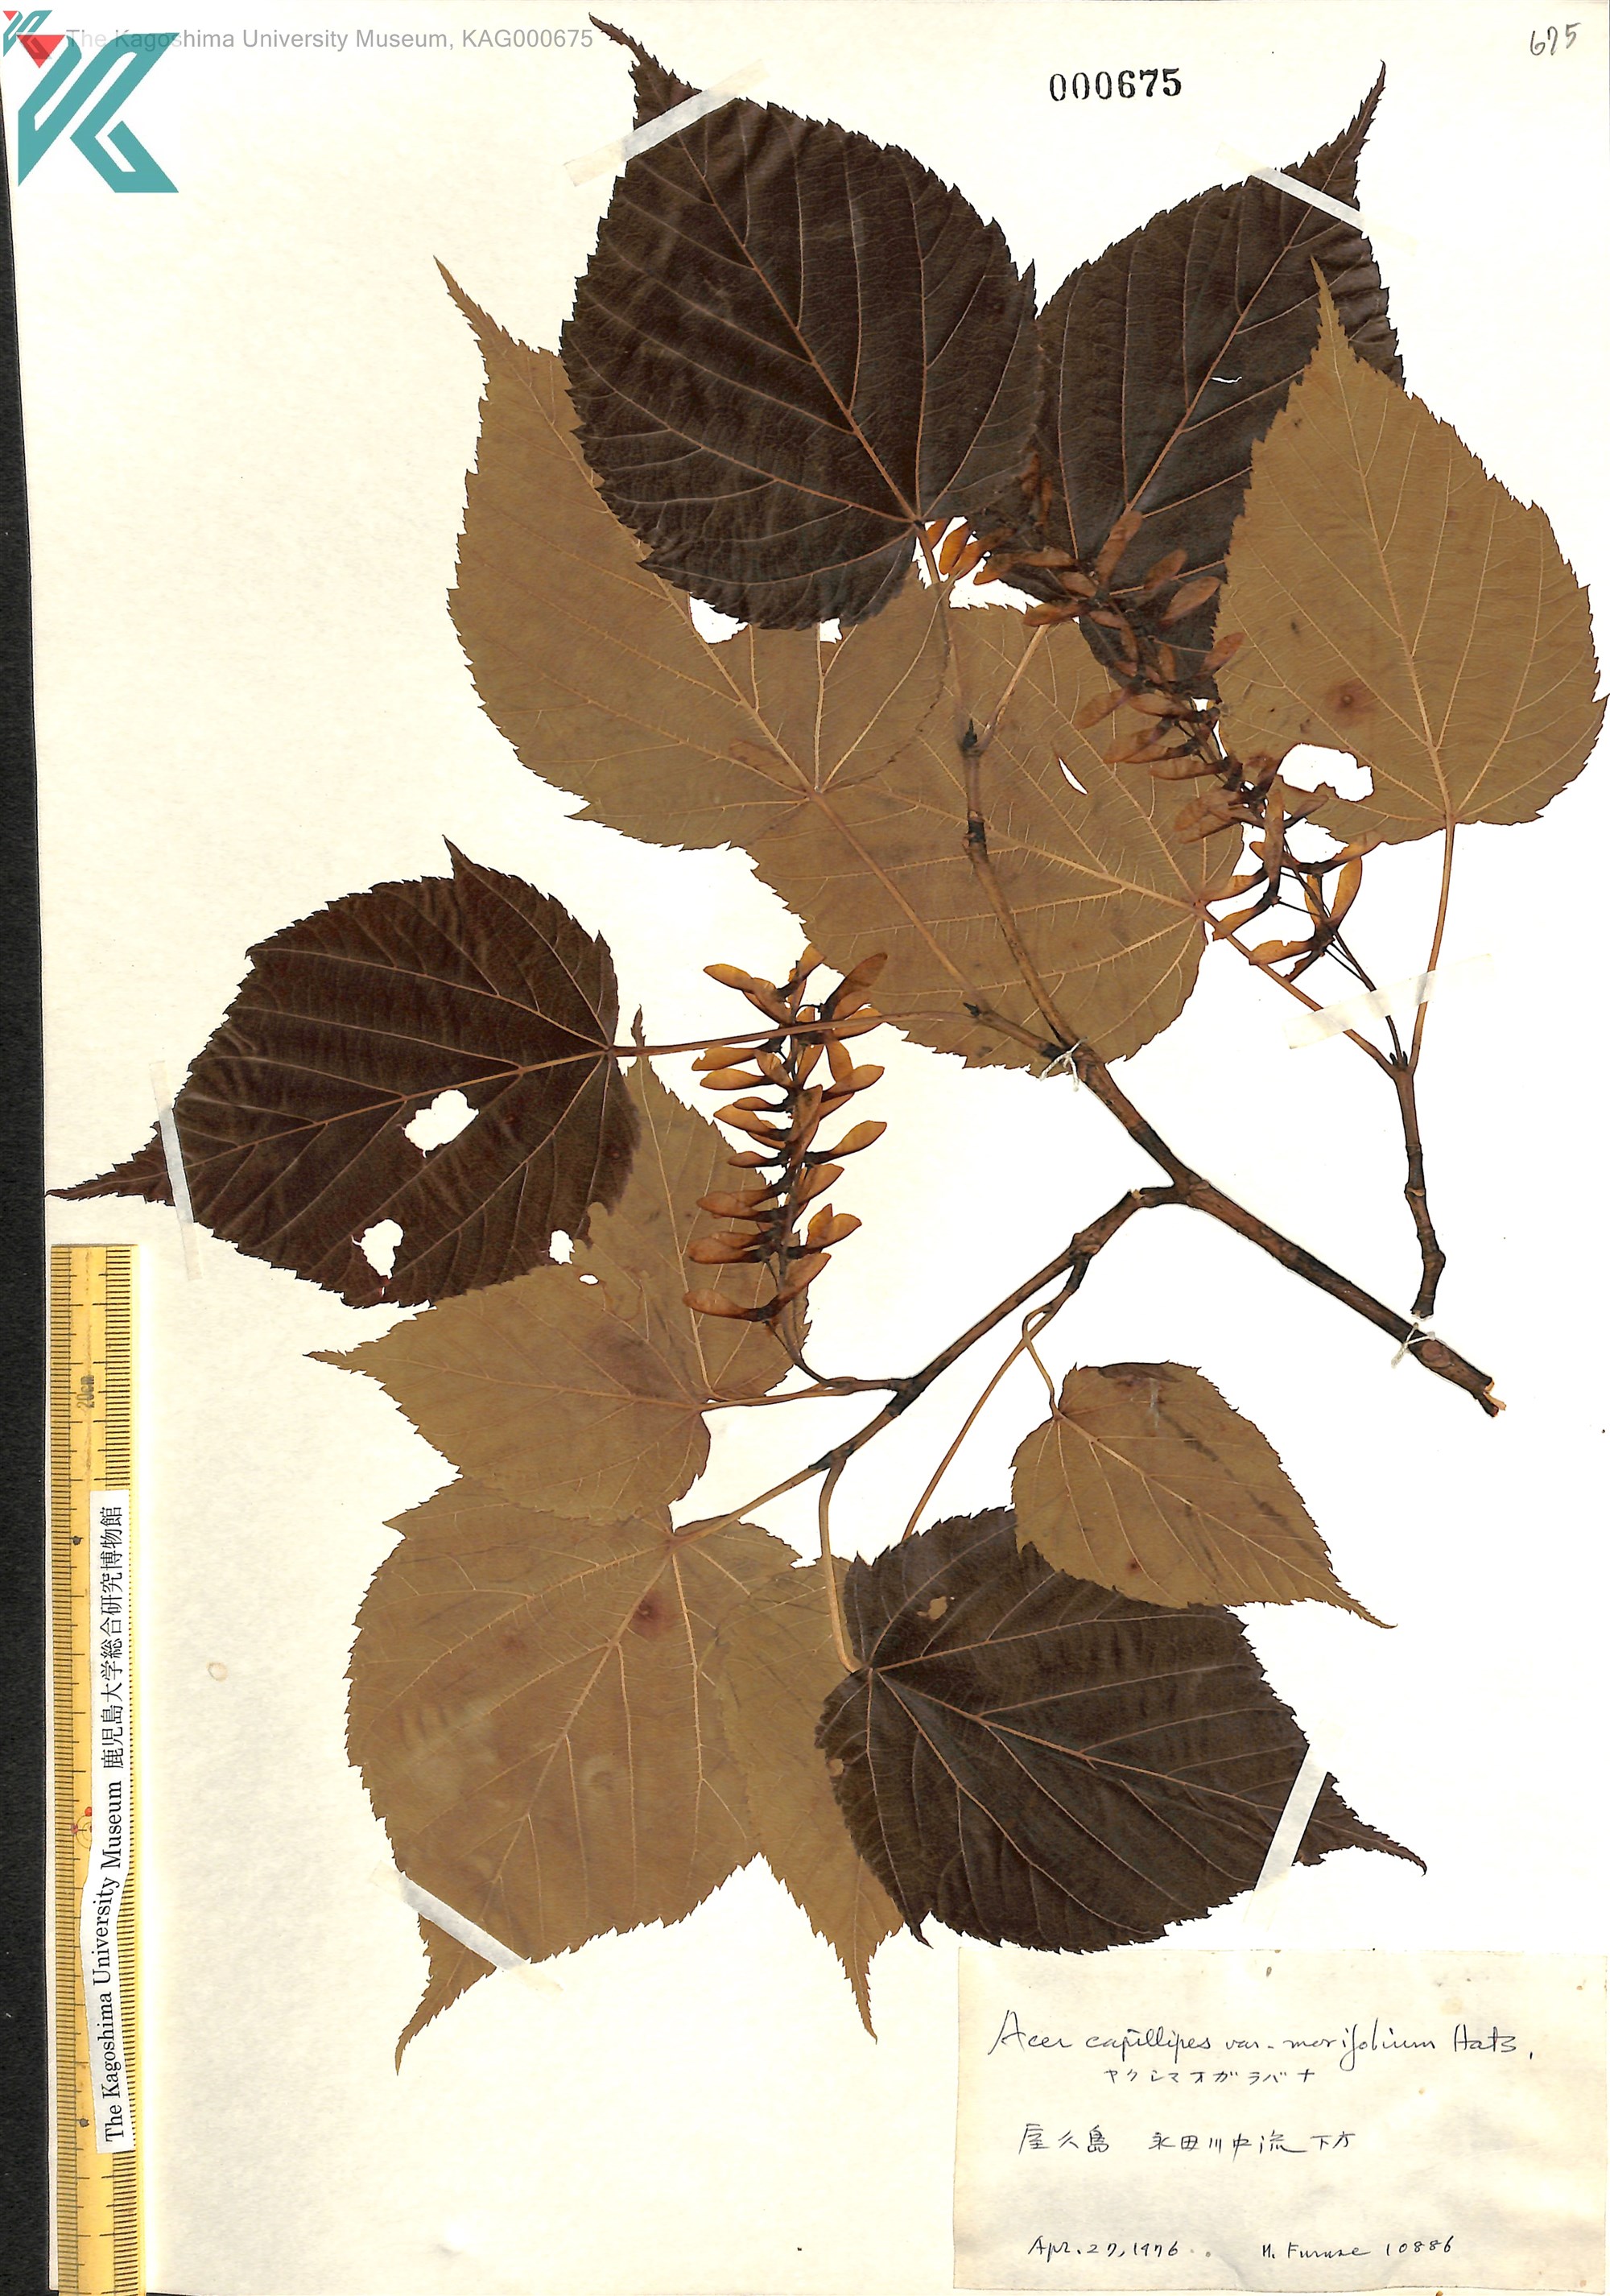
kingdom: Plantae
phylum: Tracheophyta
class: Magnoliopsida
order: Sapindales
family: Sapindaceae
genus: Acer
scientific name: Acer morifolium
